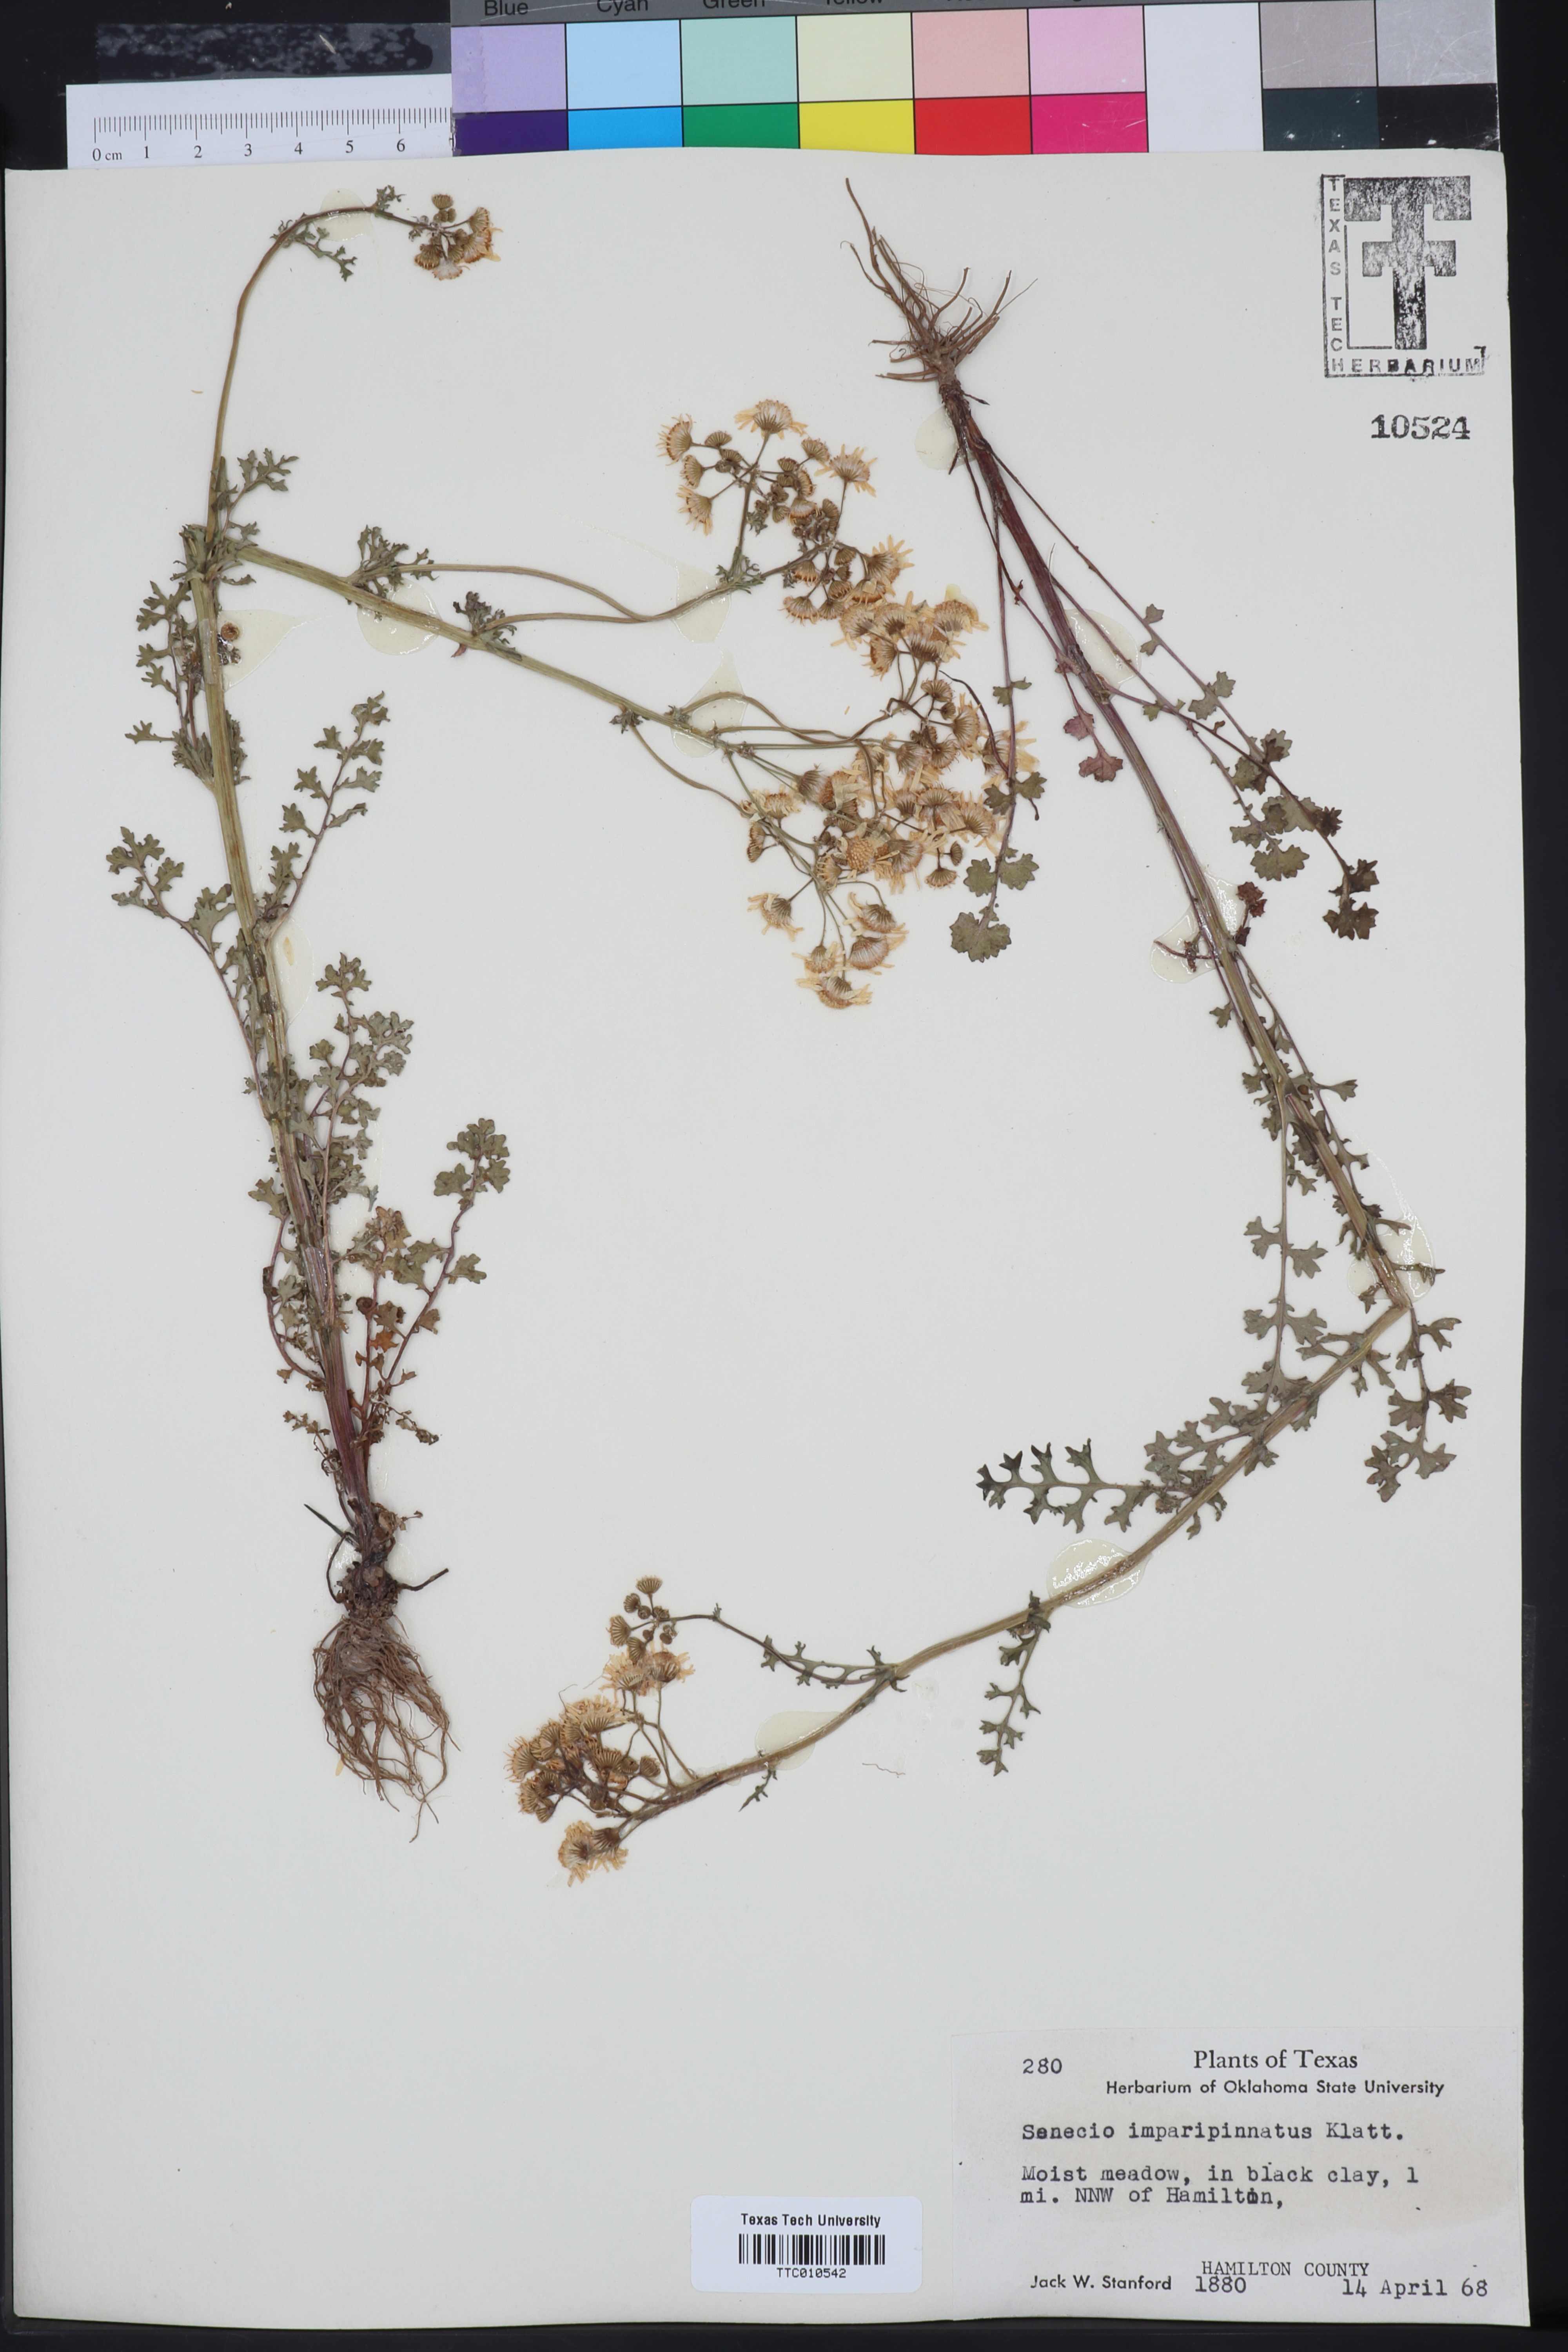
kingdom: Plantae
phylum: Tracheophyta
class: Magnoliopsida
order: Asterales
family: Asteraceae
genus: Packera
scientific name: Packera tampicana
